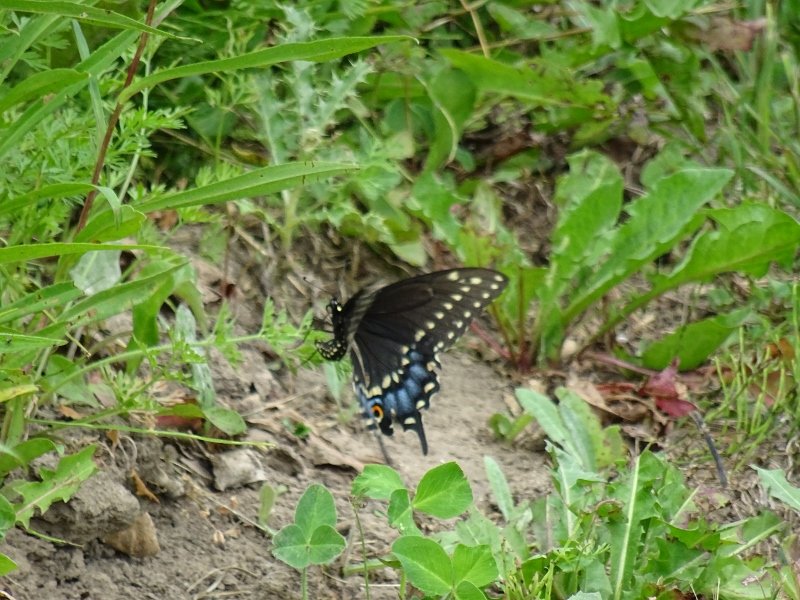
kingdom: Animalia
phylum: Arthropoda
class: Insecta
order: Lepidoptera
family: Papilionidae
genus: Papilio
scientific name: Papilio polyxenes
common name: Black Swallowtail
